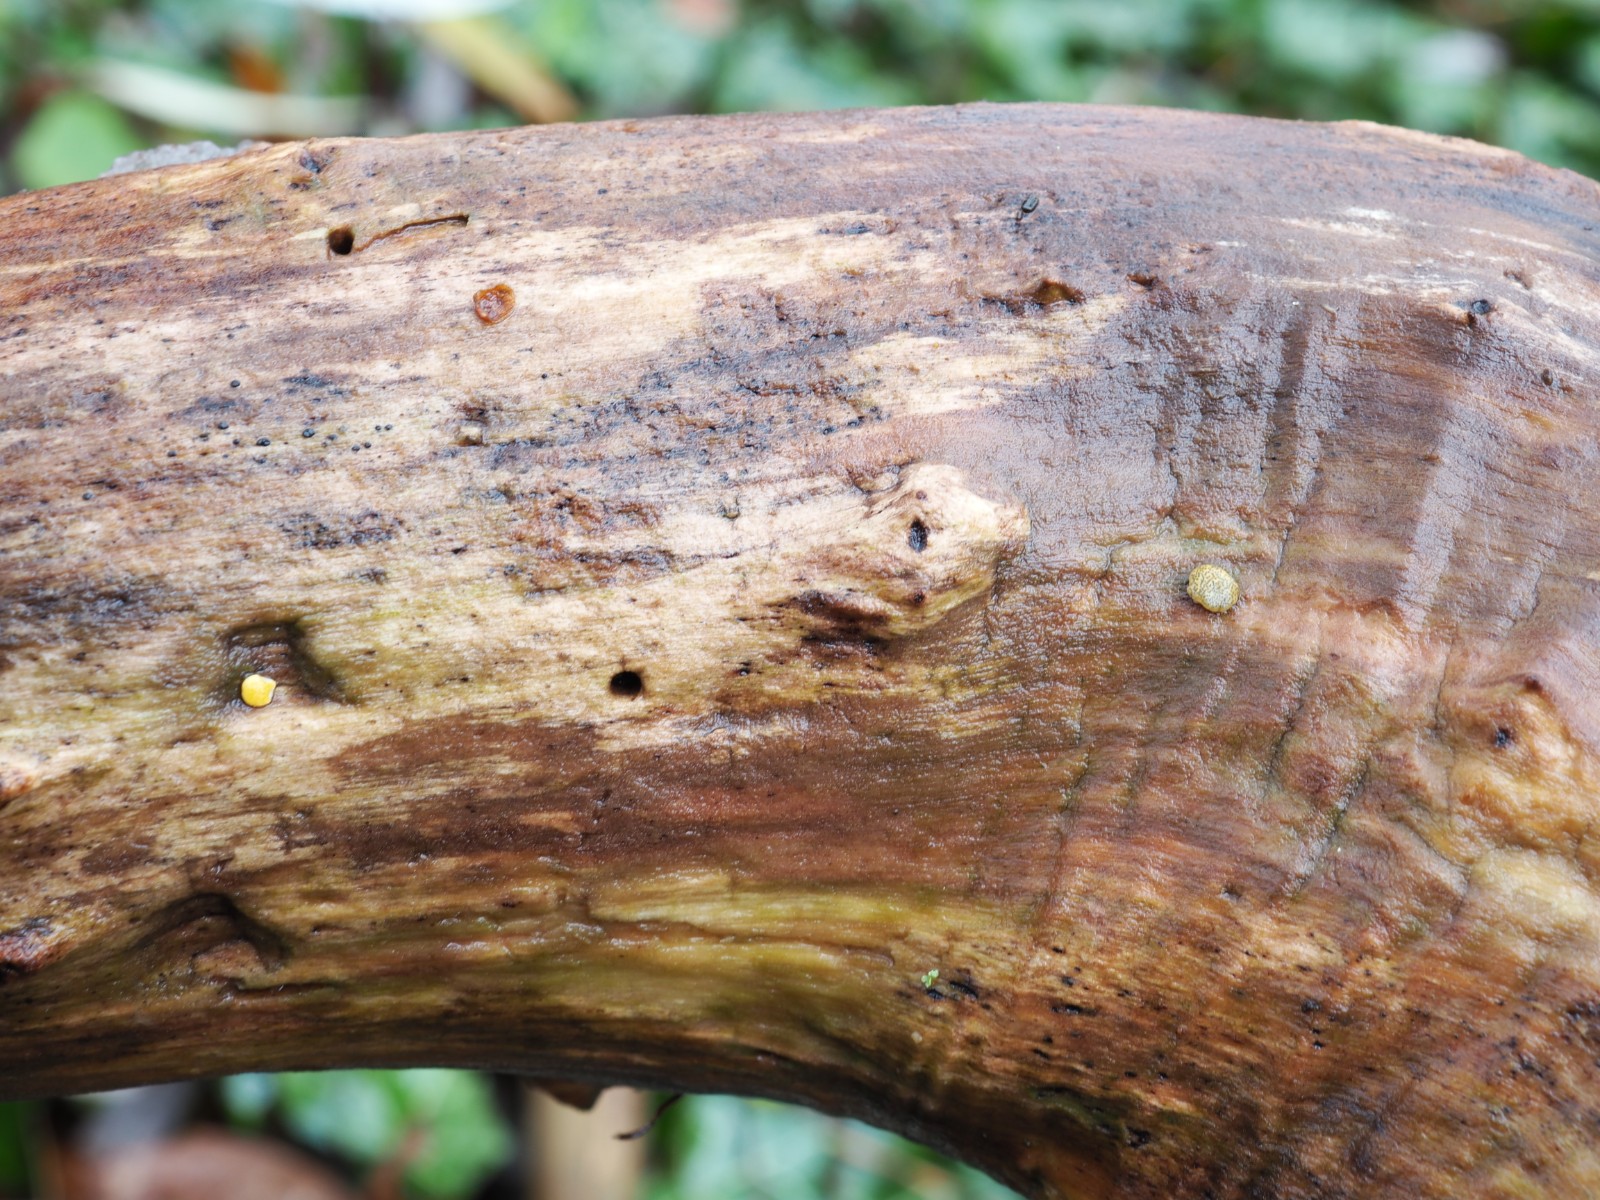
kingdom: Fungi
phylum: Ascomycota
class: Sordariomycetes
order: Hypocreales
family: Hypocreaceae
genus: Trichoderma
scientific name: Trichoderma aureoviride
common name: æggegul kødkerne
